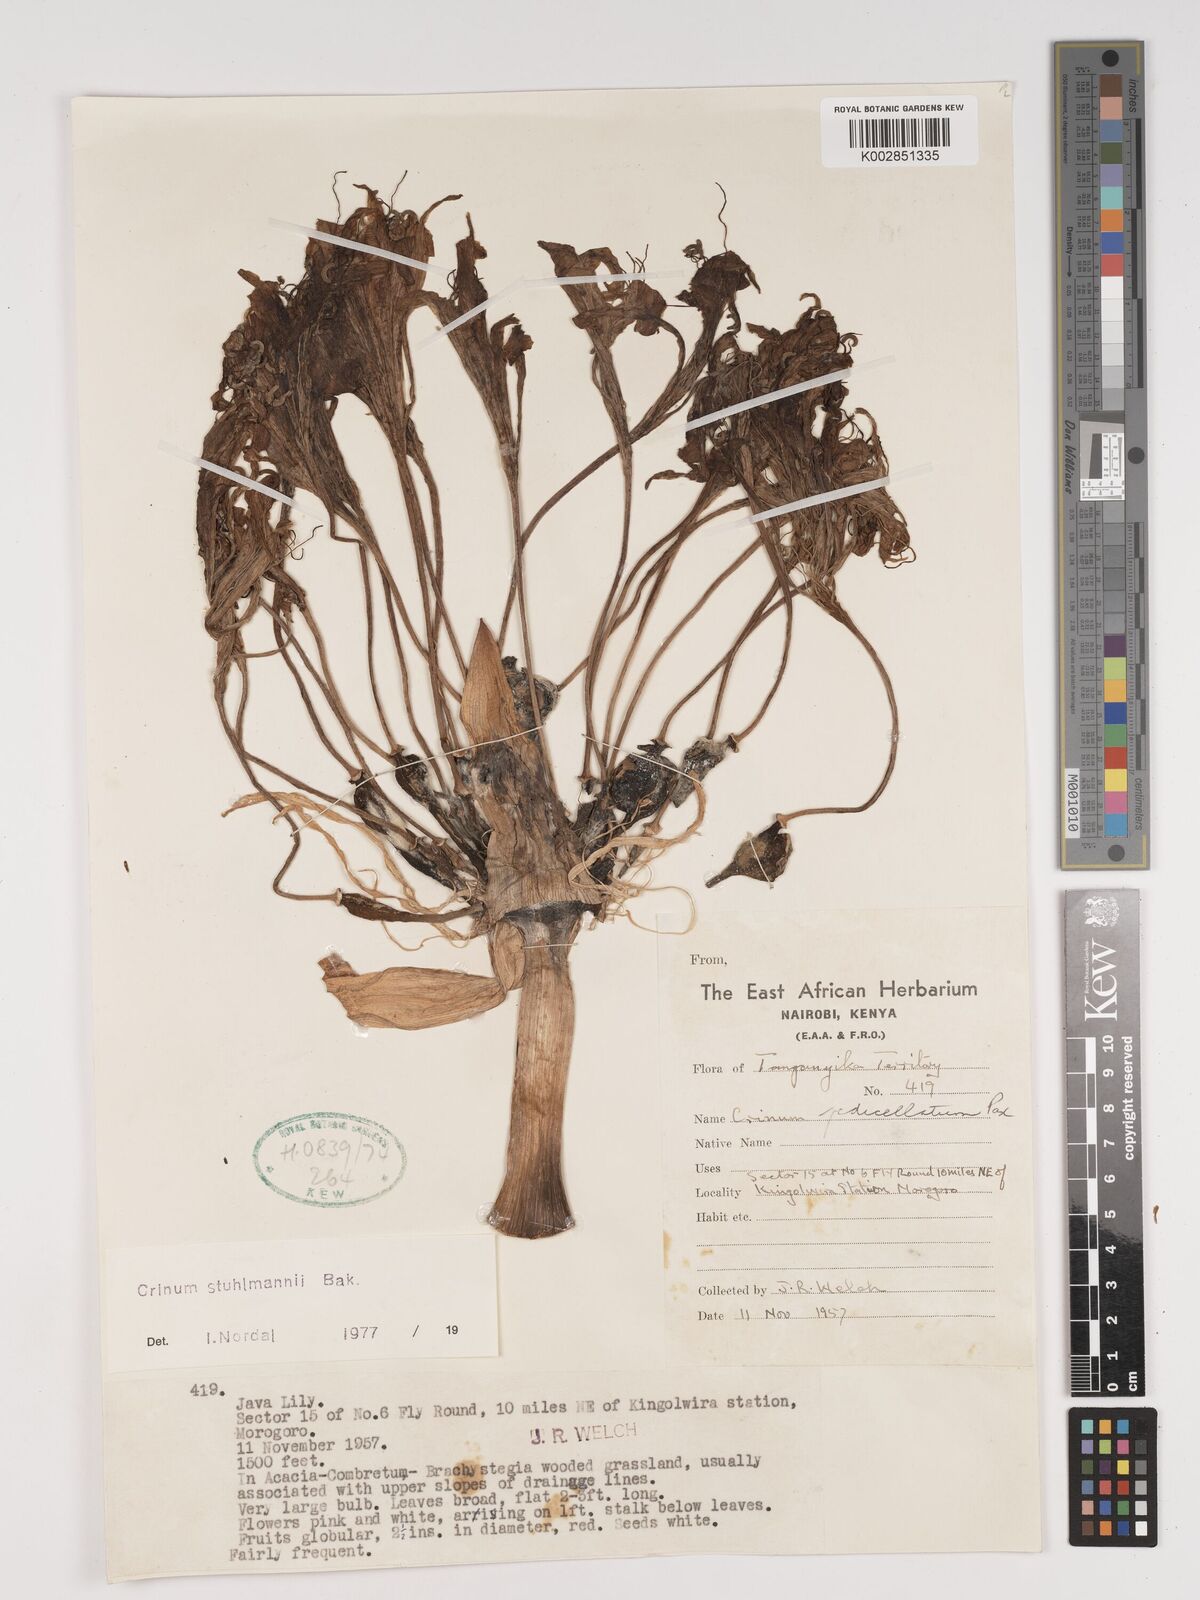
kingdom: Plantae
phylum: Tracheophyta
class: Liliopsida
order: Asparagales
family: Amaryllidaceae
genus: Crinum
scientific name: Crinum stuhlmannii
